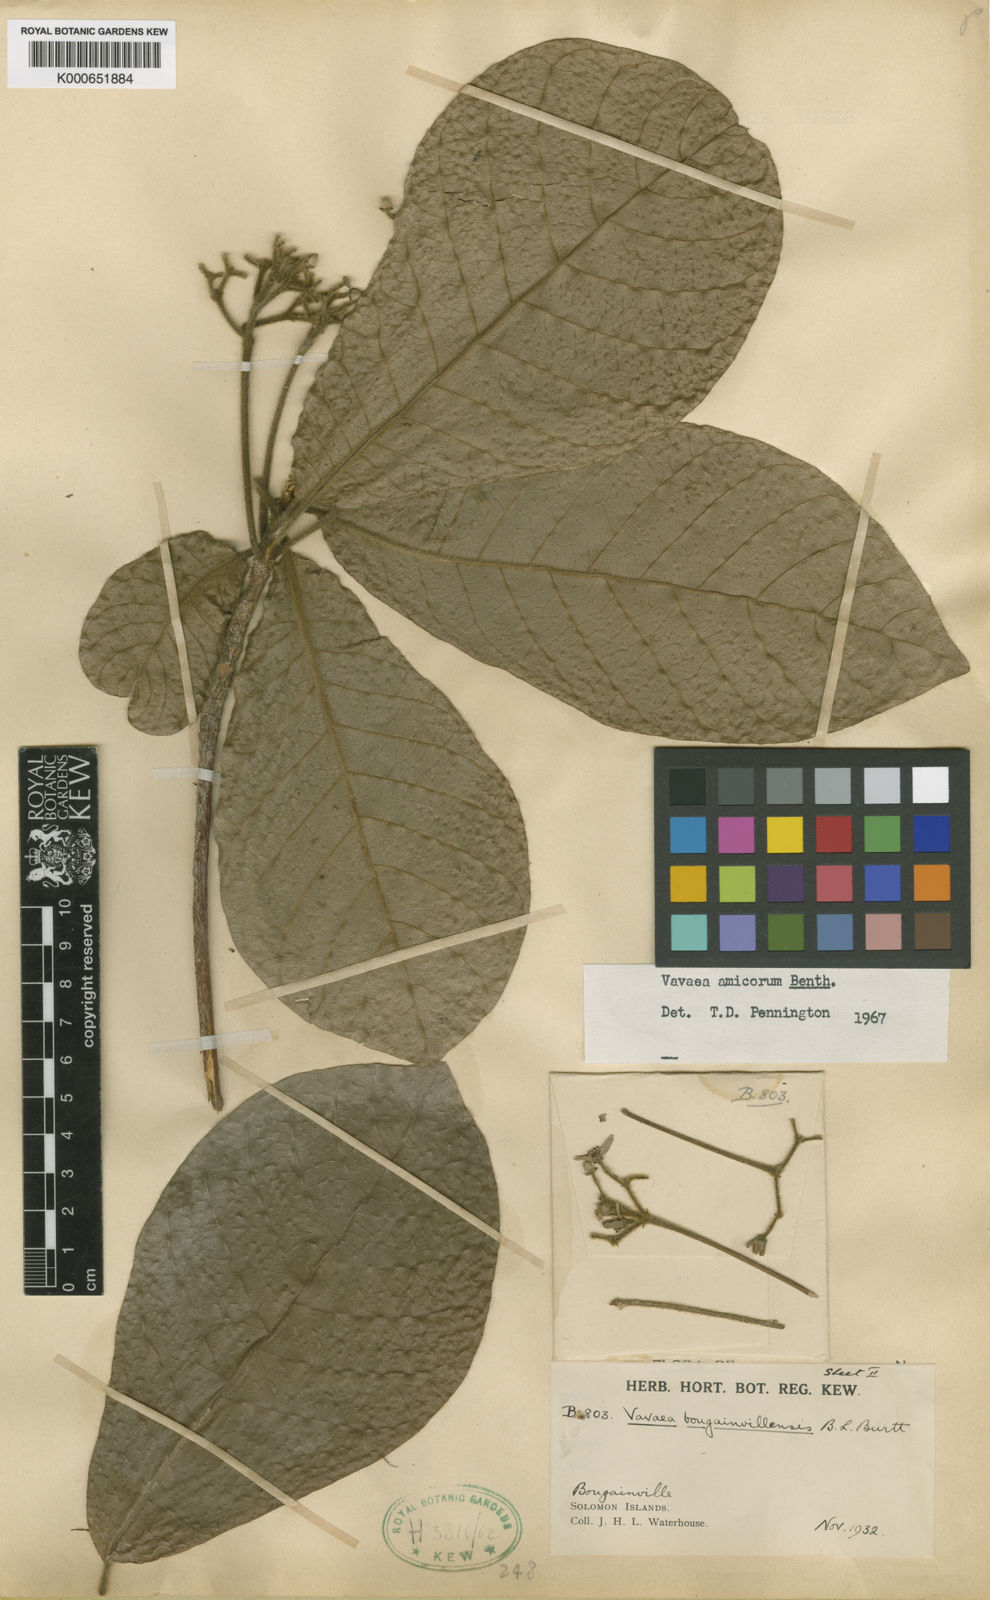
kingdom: Plantae
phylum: Tracheophyta
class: Magnoliopsida
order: Sapindales
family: Meliaceae
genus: Vavaea
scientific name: Vavaea amicorum
